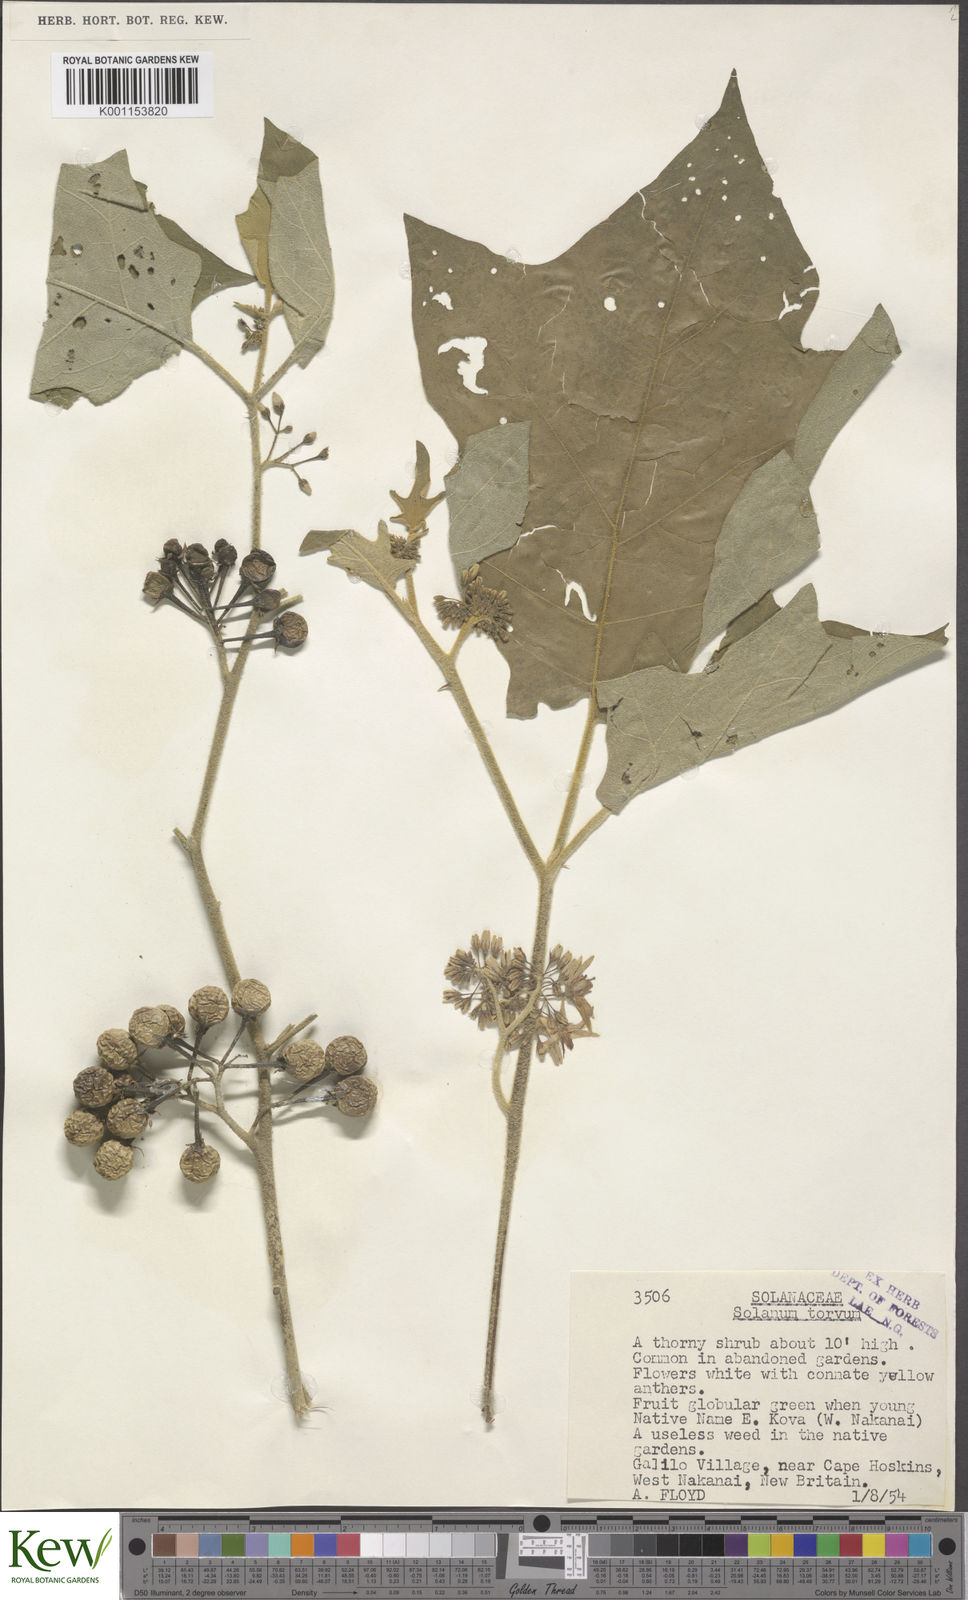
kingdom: Plantae
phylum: Tracheophyta
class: Magnoliopsida
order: Solanales
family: Solanaceae
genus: Solanum
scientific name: Solanum torvum
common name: Turkey berry
